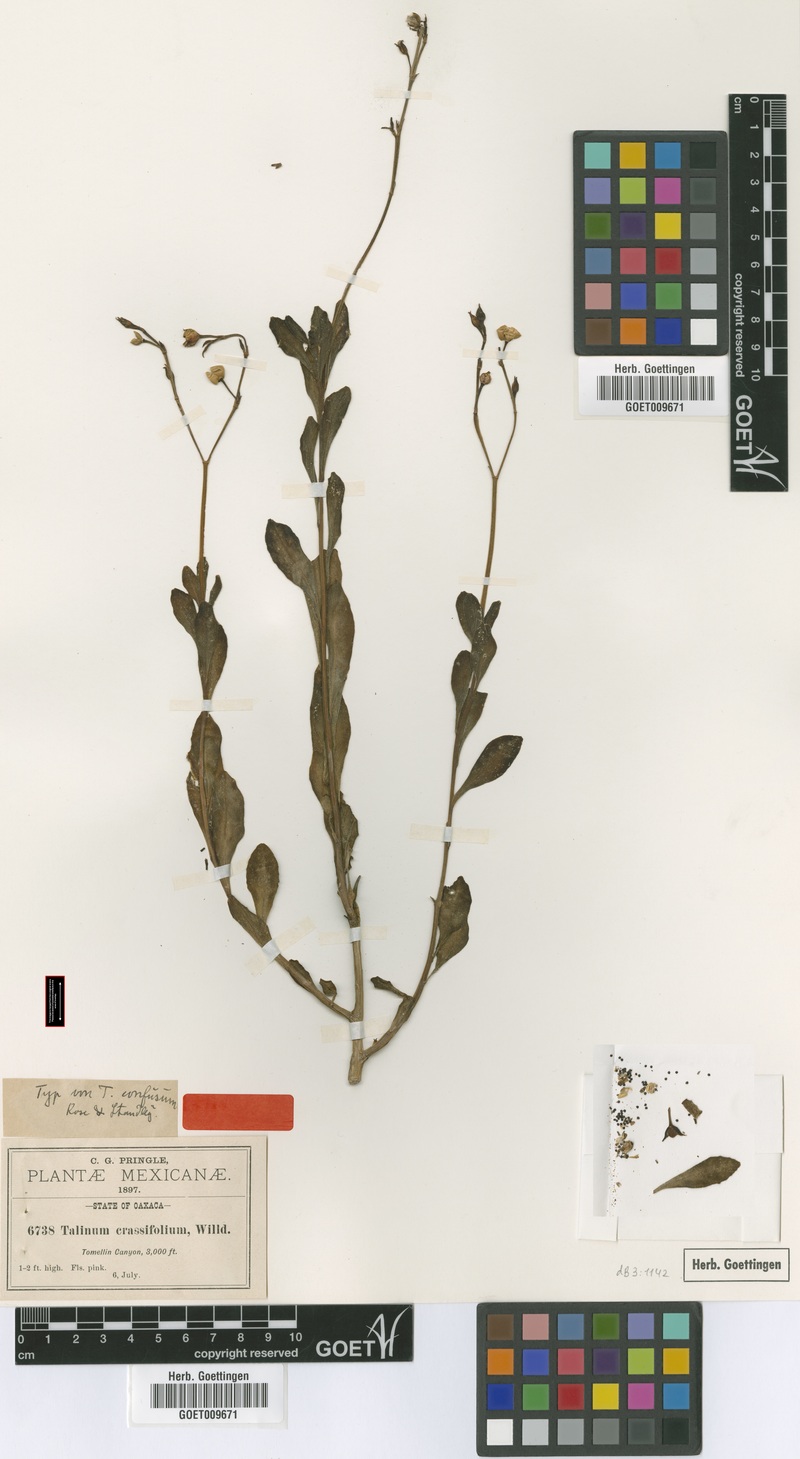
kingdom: Plantae
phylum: Tracheophyta
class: Magnoliopsida
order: Caryophyllales
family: Talinaceae
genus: Talinum
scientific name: Talinum fruticosum
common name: Verdolaga-francesa
